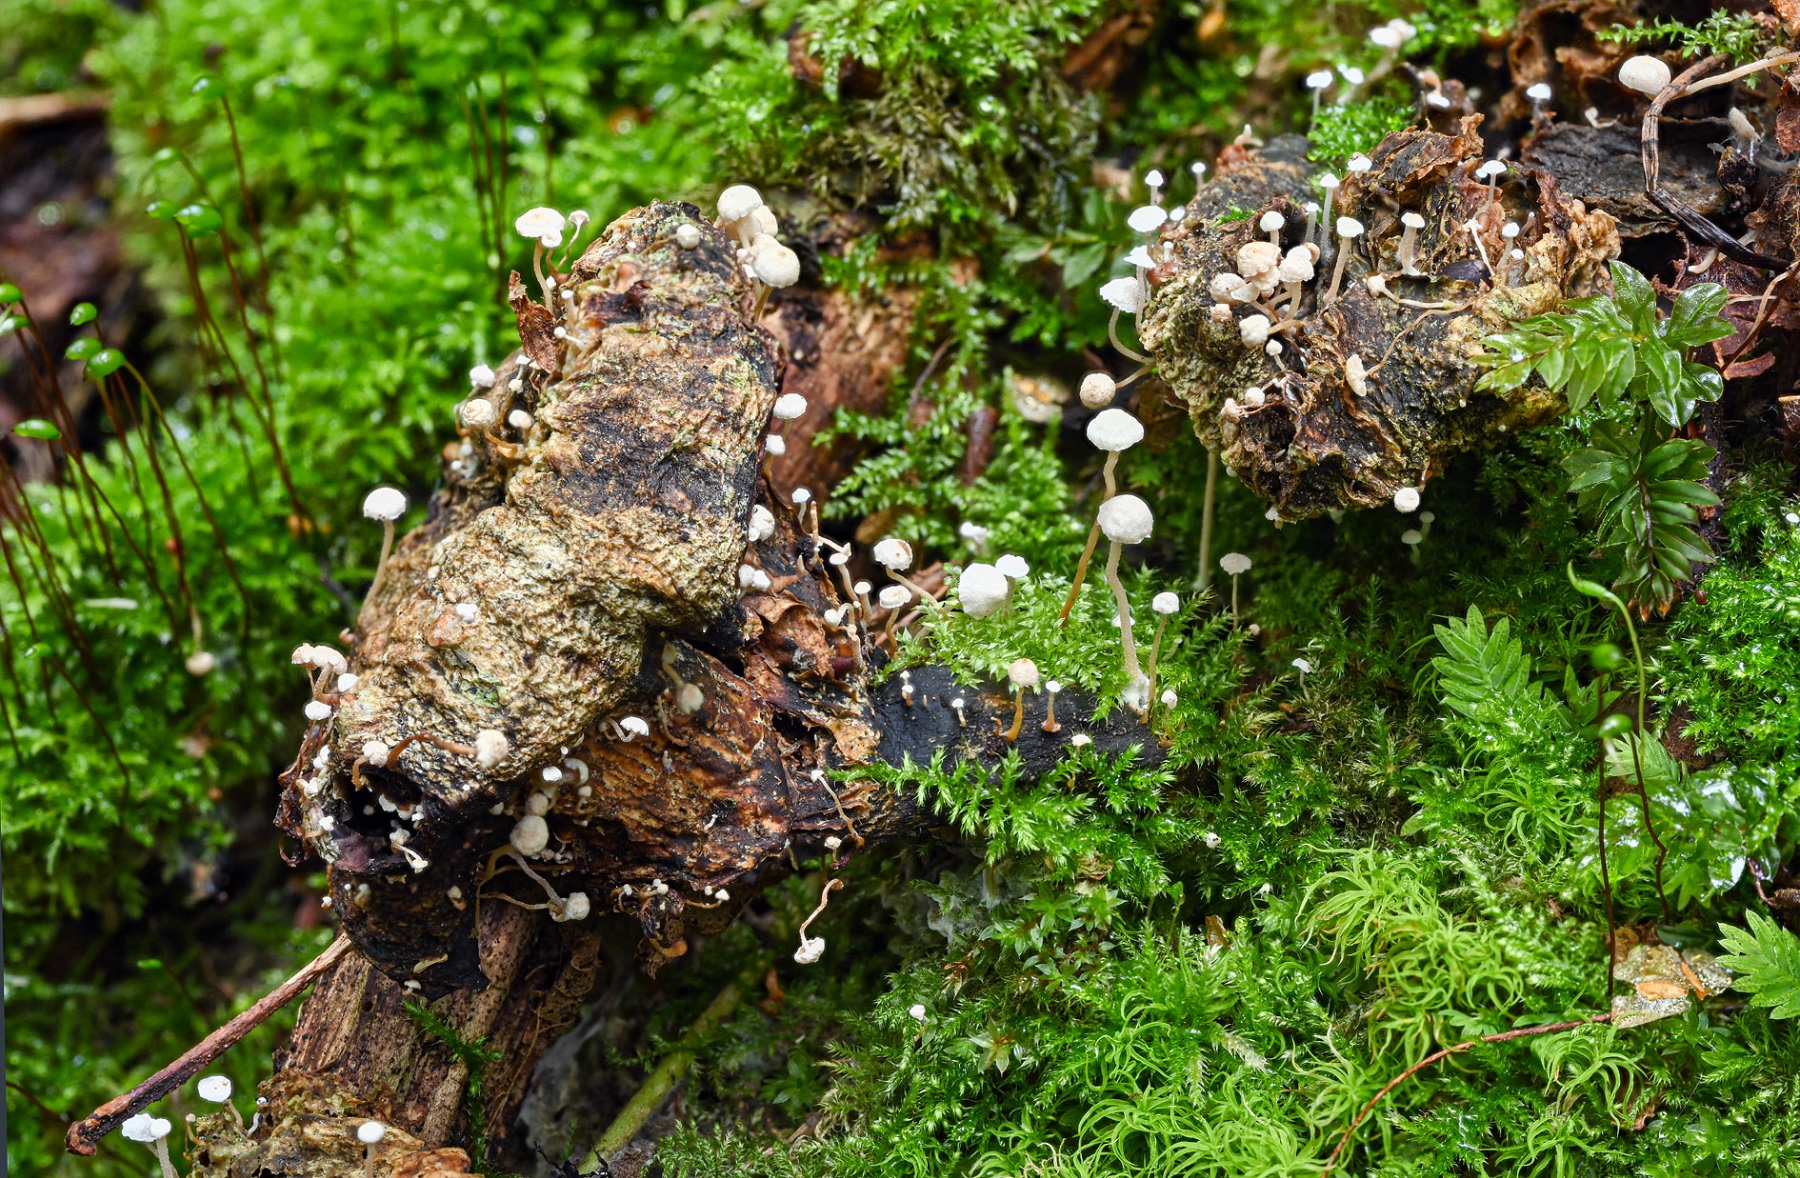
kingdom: Fungi
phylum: Basidiomycota
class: Agaricomycetes
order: Agaricales
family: Tricholomataceae
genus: Collybia
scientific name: Collybia tuberosa
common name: spidsknoldet lighat
